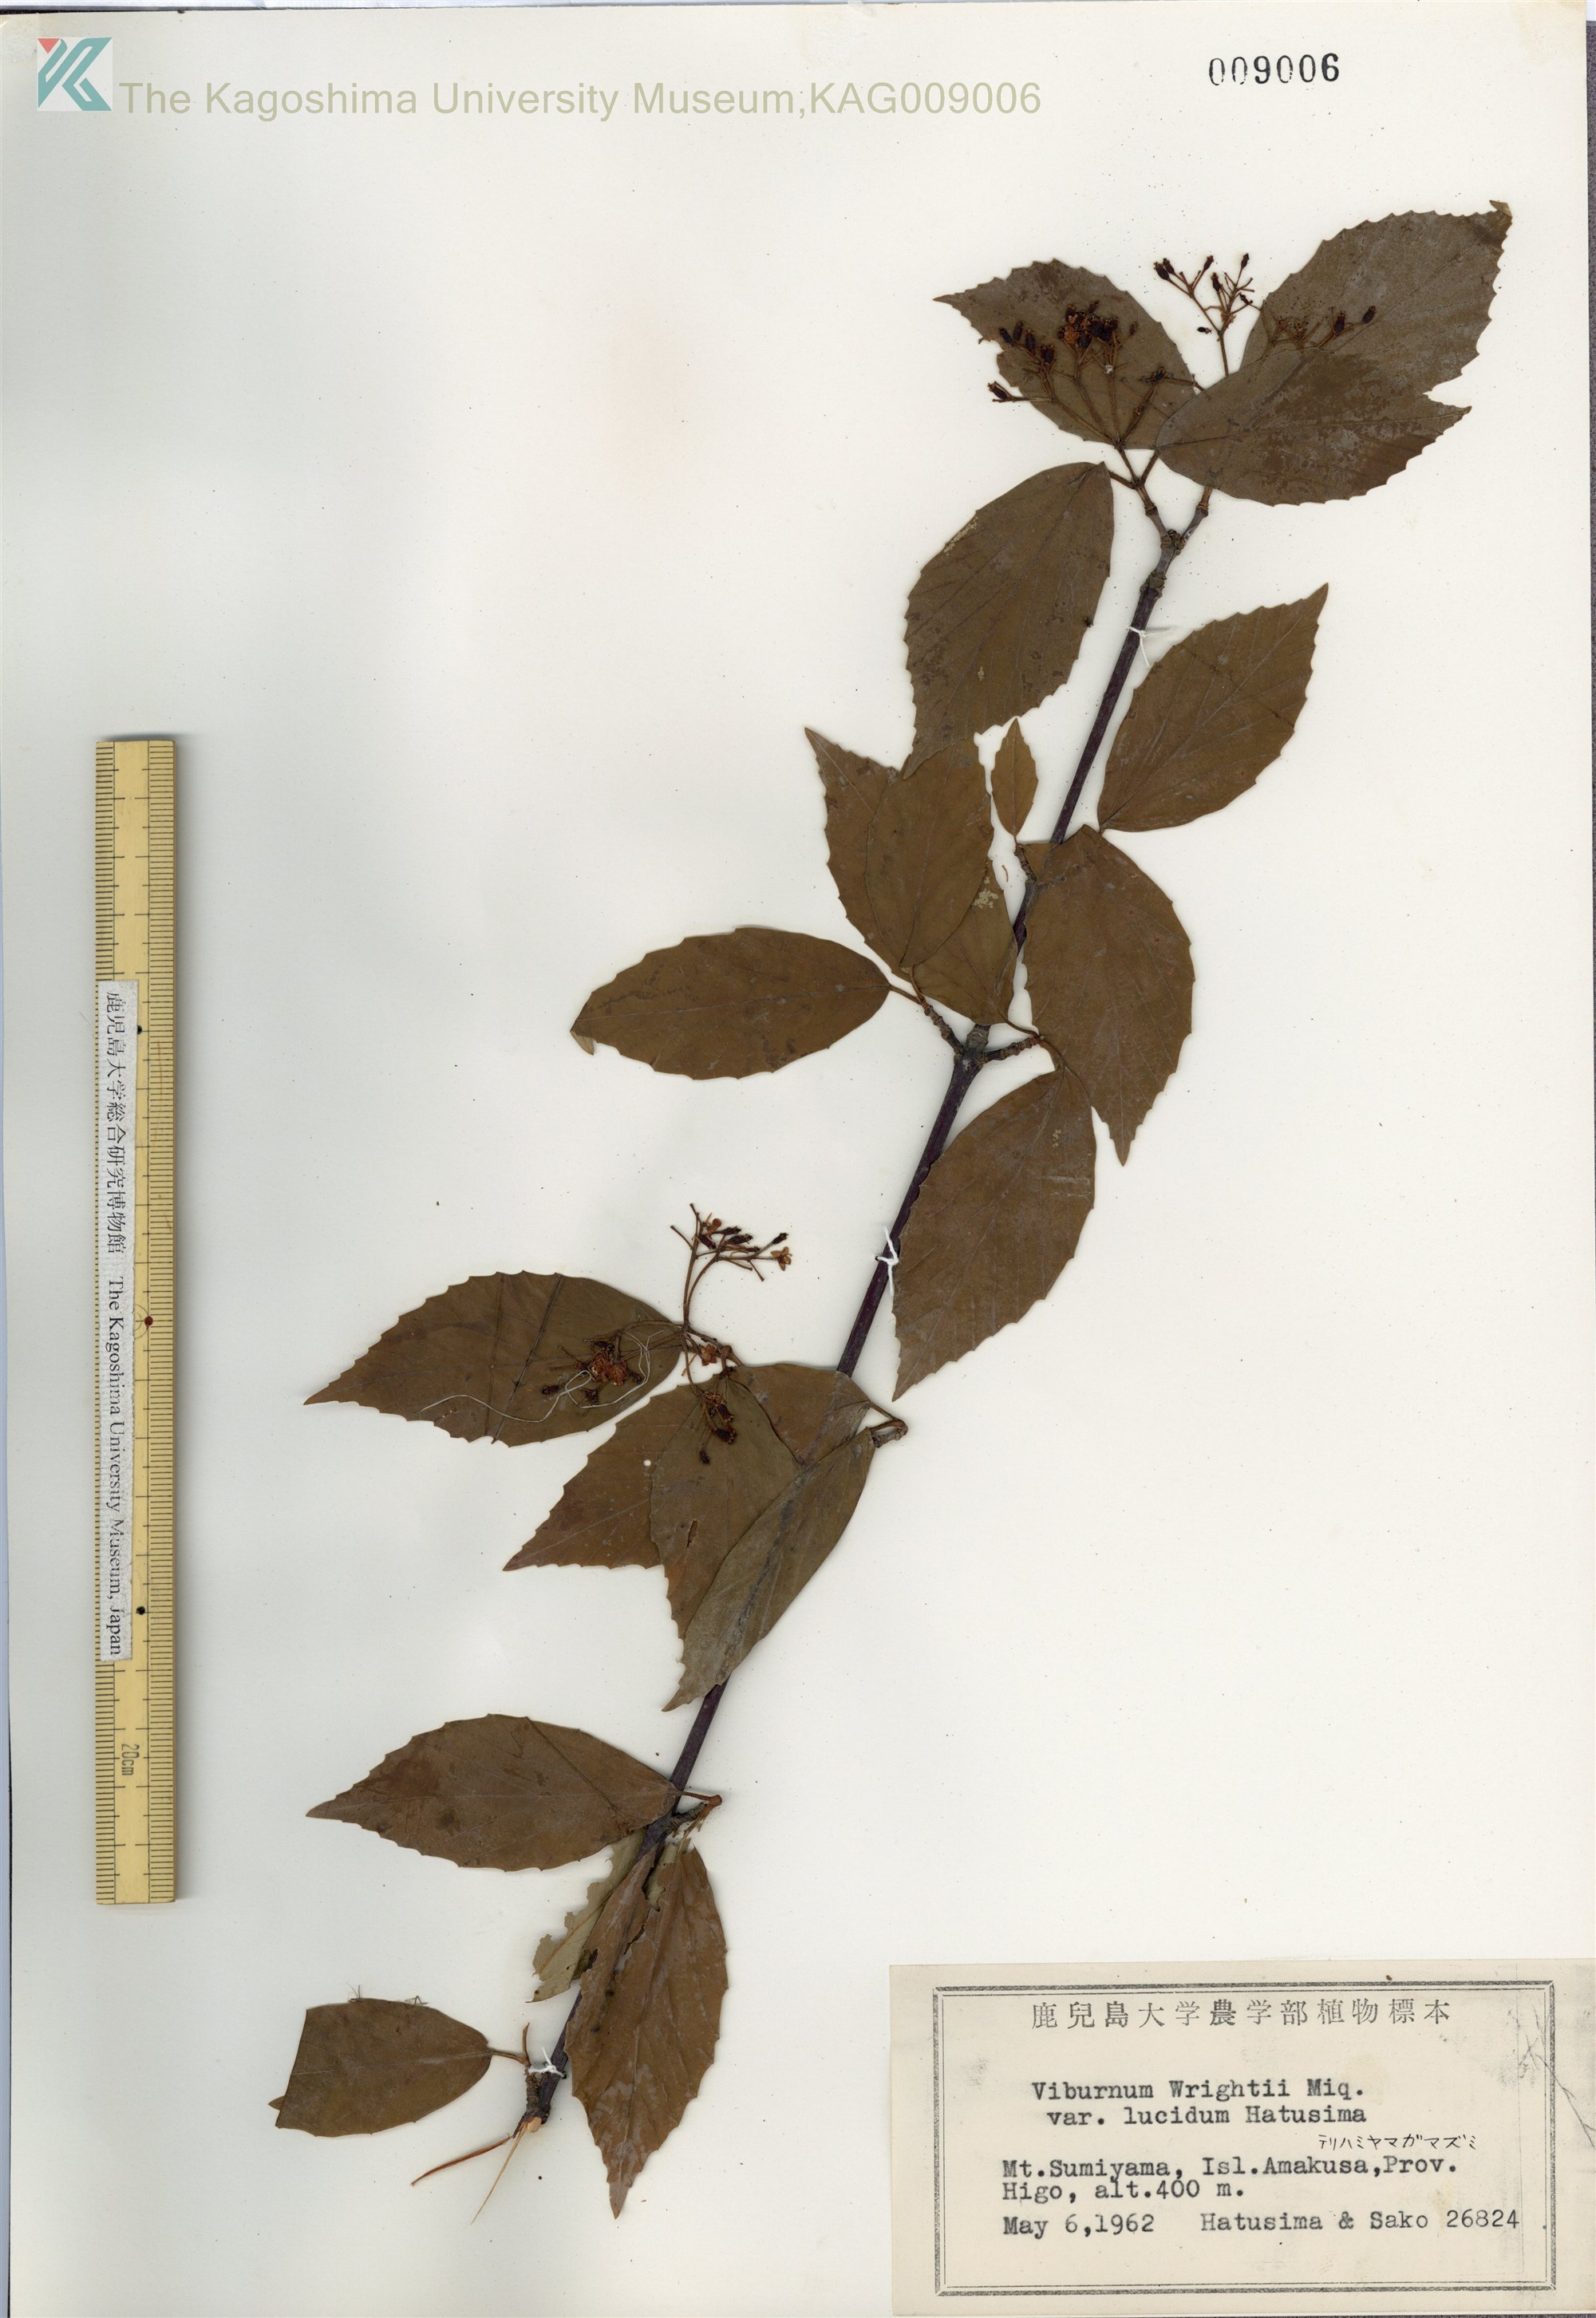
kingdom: Plantae
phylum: Tracheophyta
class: Magnoliopsida
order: Dipsacales
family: Viburnaceae
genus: Viburnum
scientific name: Viburnum wrightii
